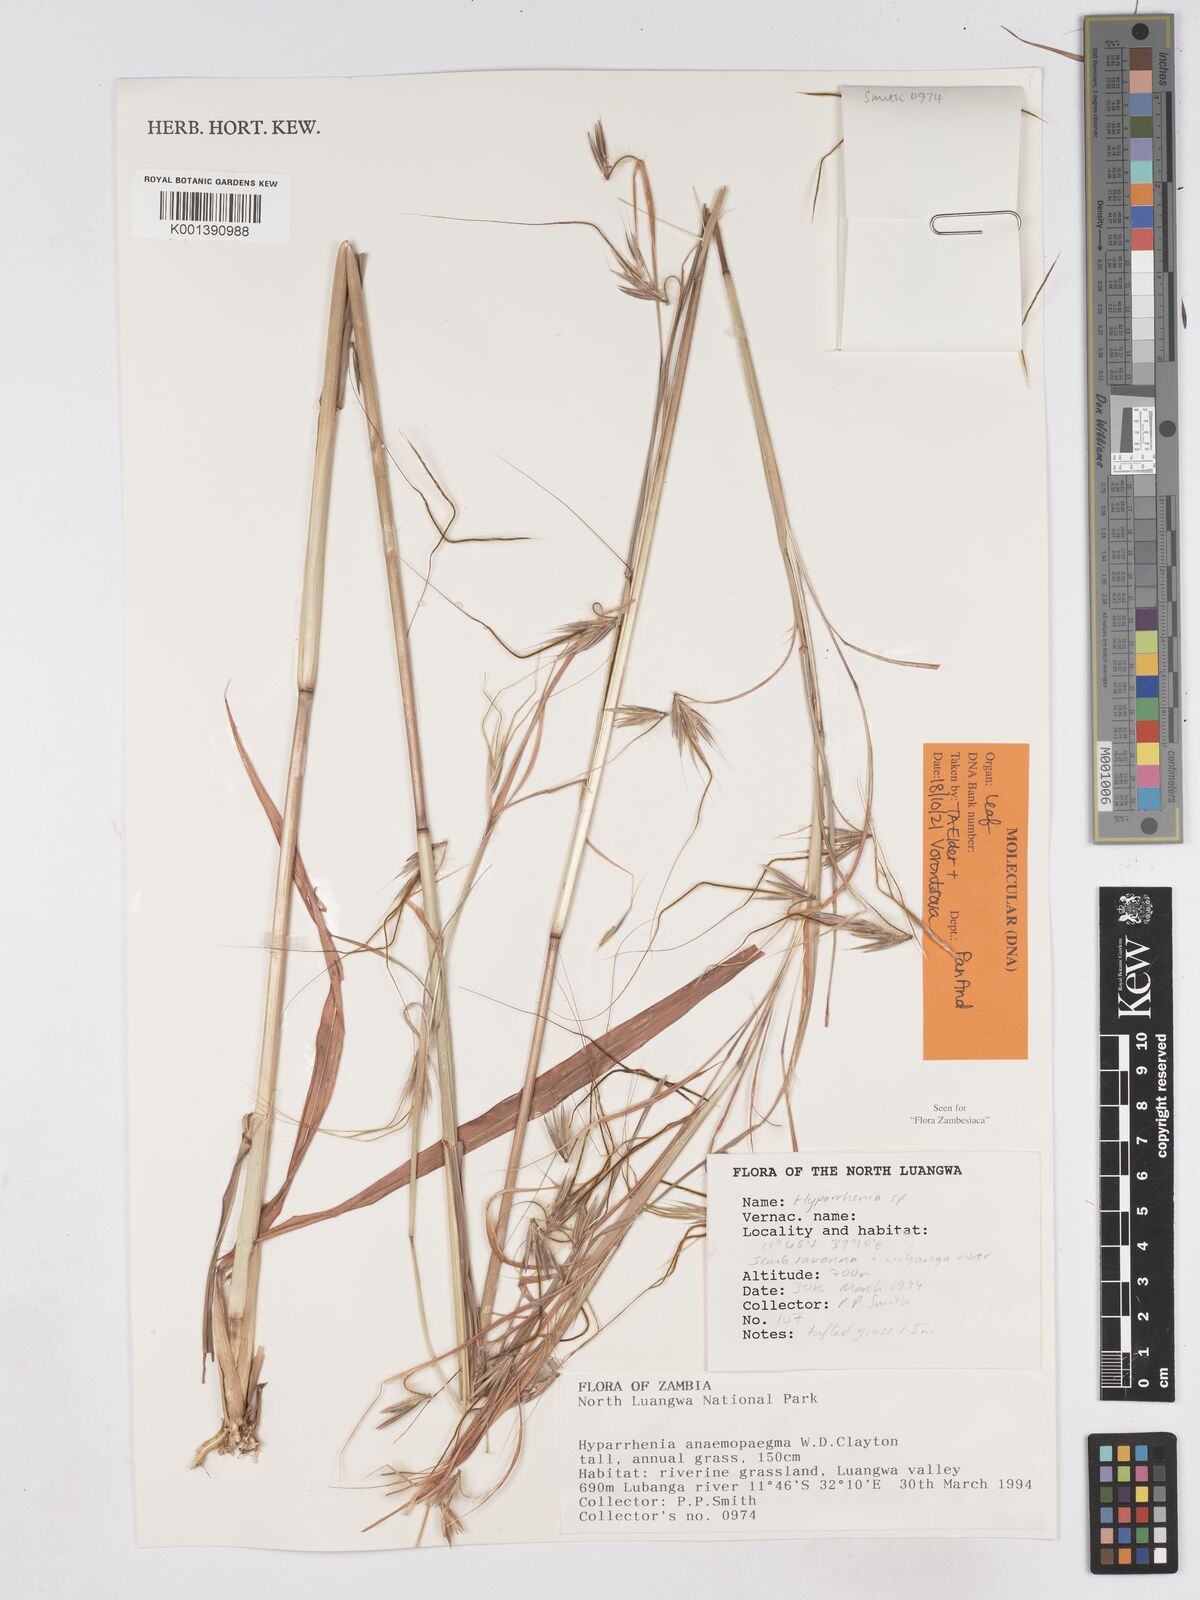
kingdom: Plantae
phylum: Tracheophyta
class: Liliopsida
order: Poales
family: Poaceae
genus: Hyparrhenia
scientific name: Hyparrhenia anemopaegma
